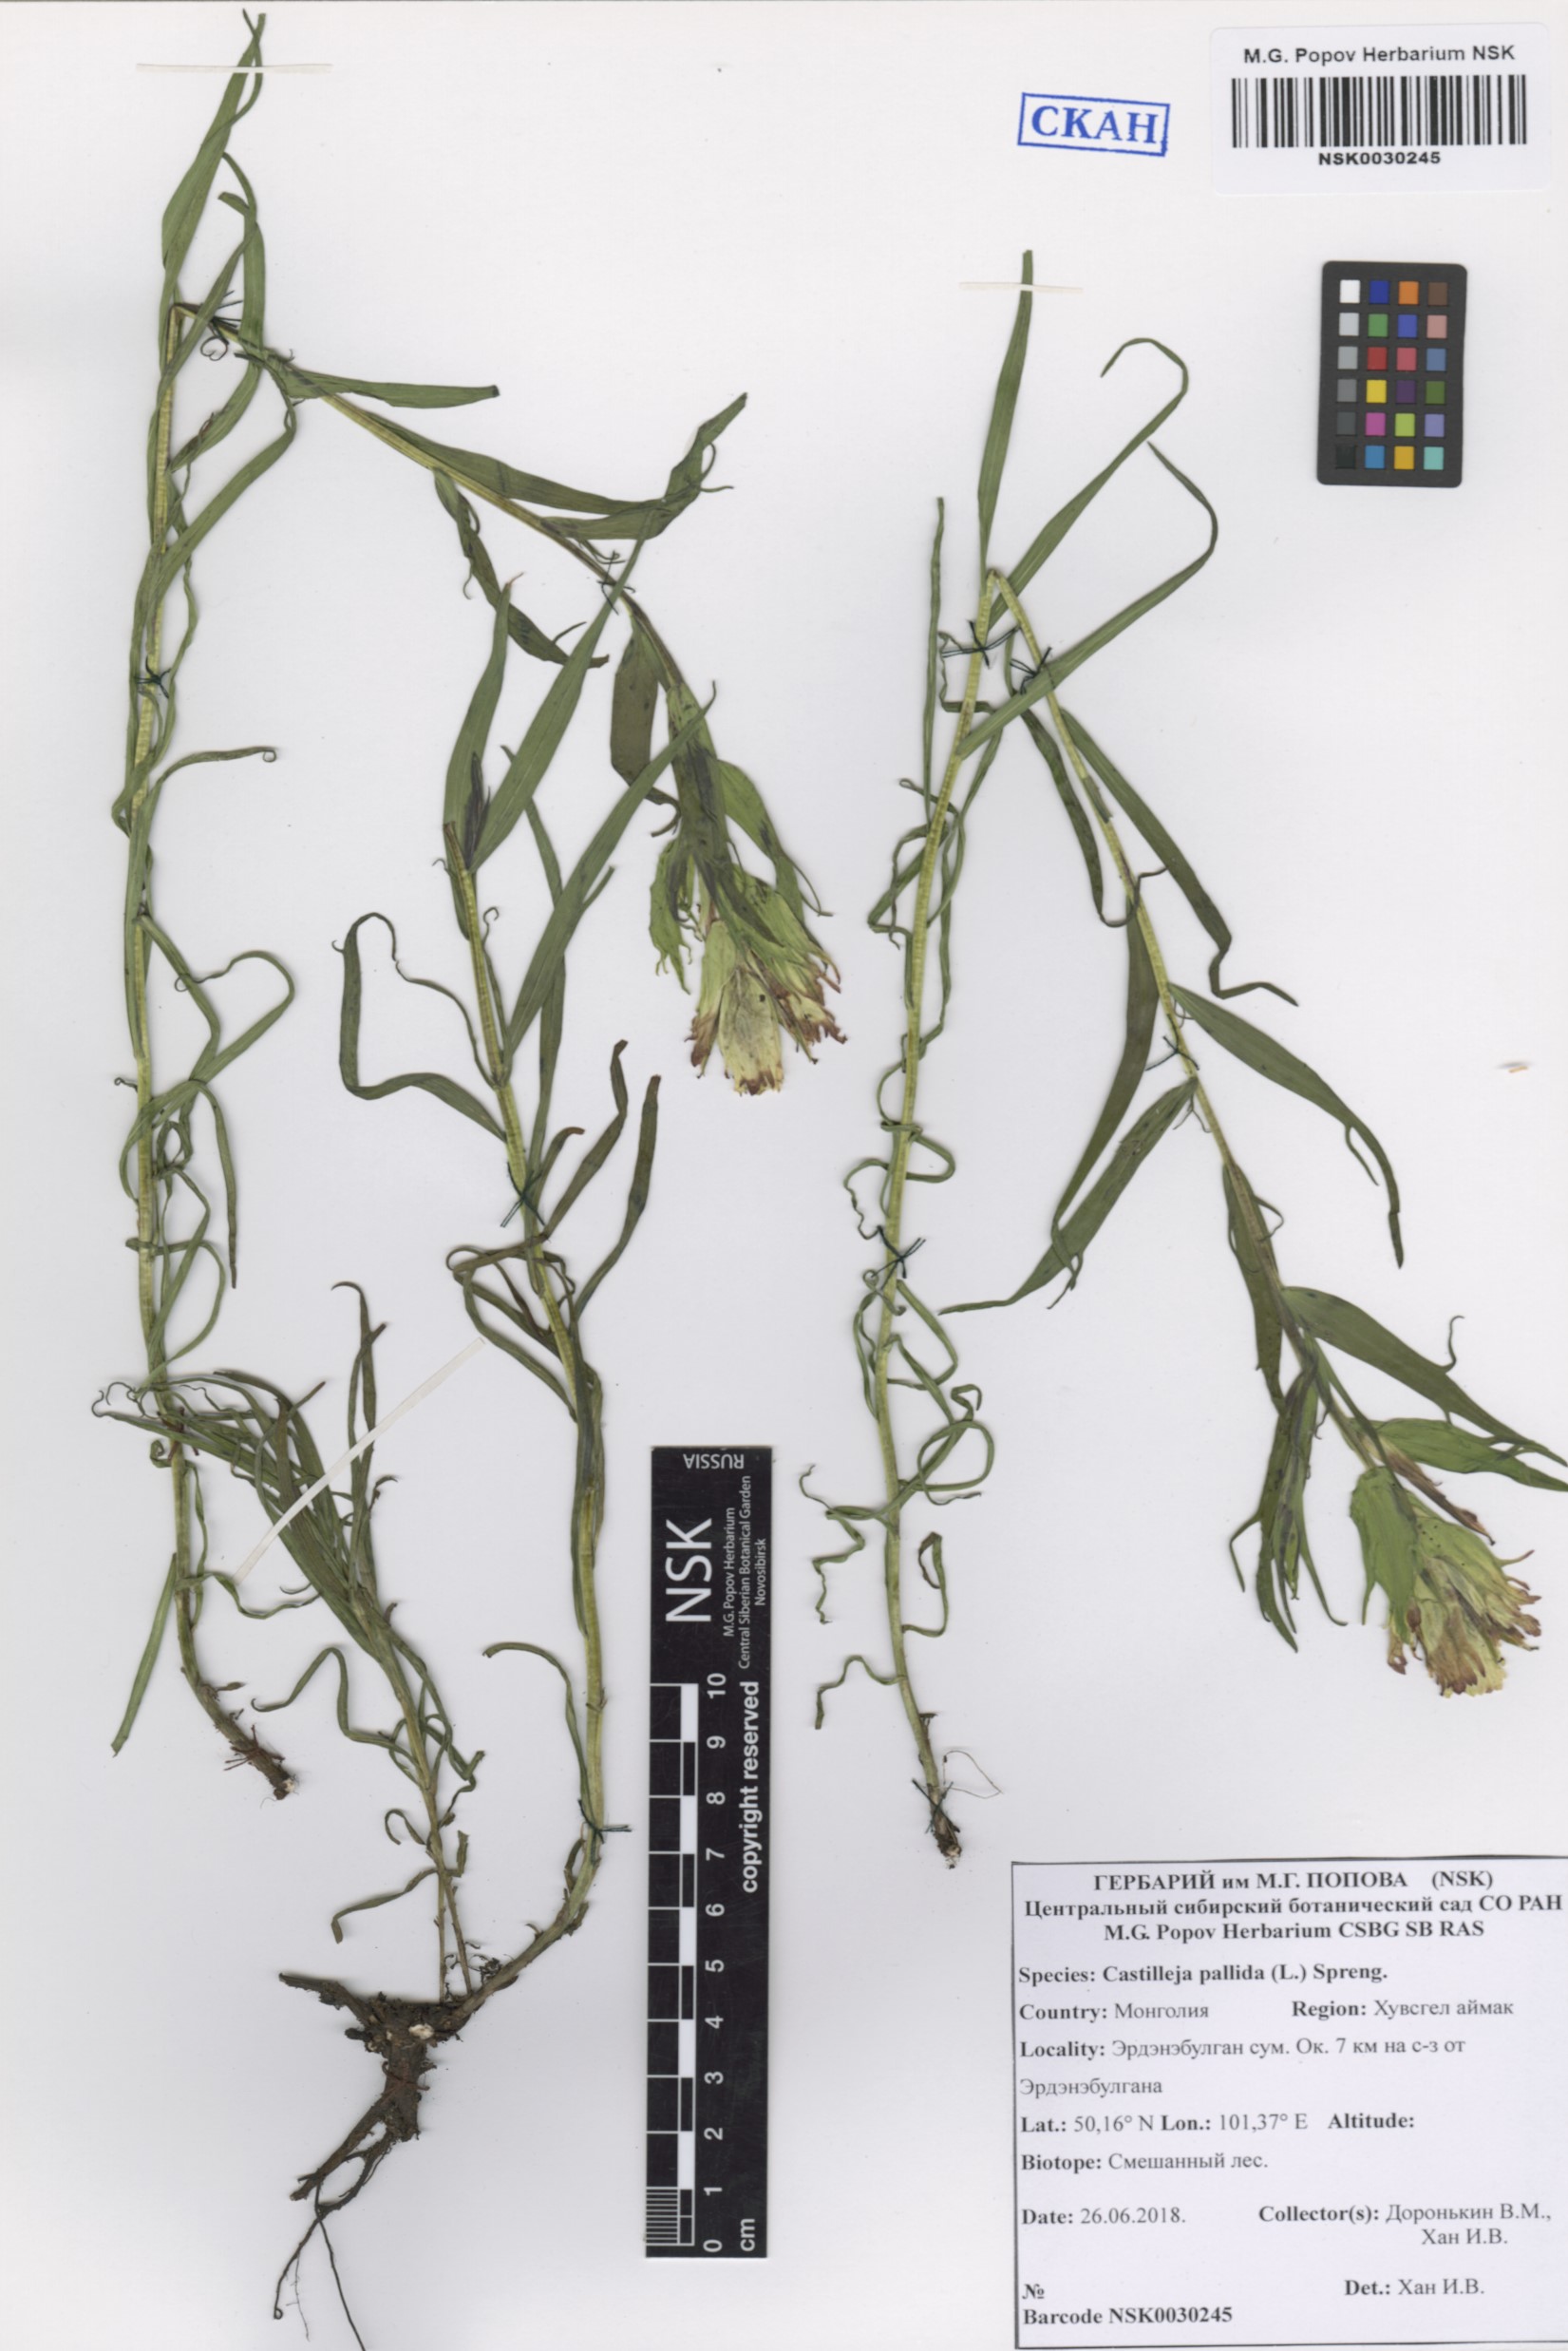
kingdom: Plantae
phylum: Tracheophyta
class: Magnoliopsida
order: Lamiales
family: Orobanchaceae
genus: Castilleja
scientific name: Castilleja pallida
